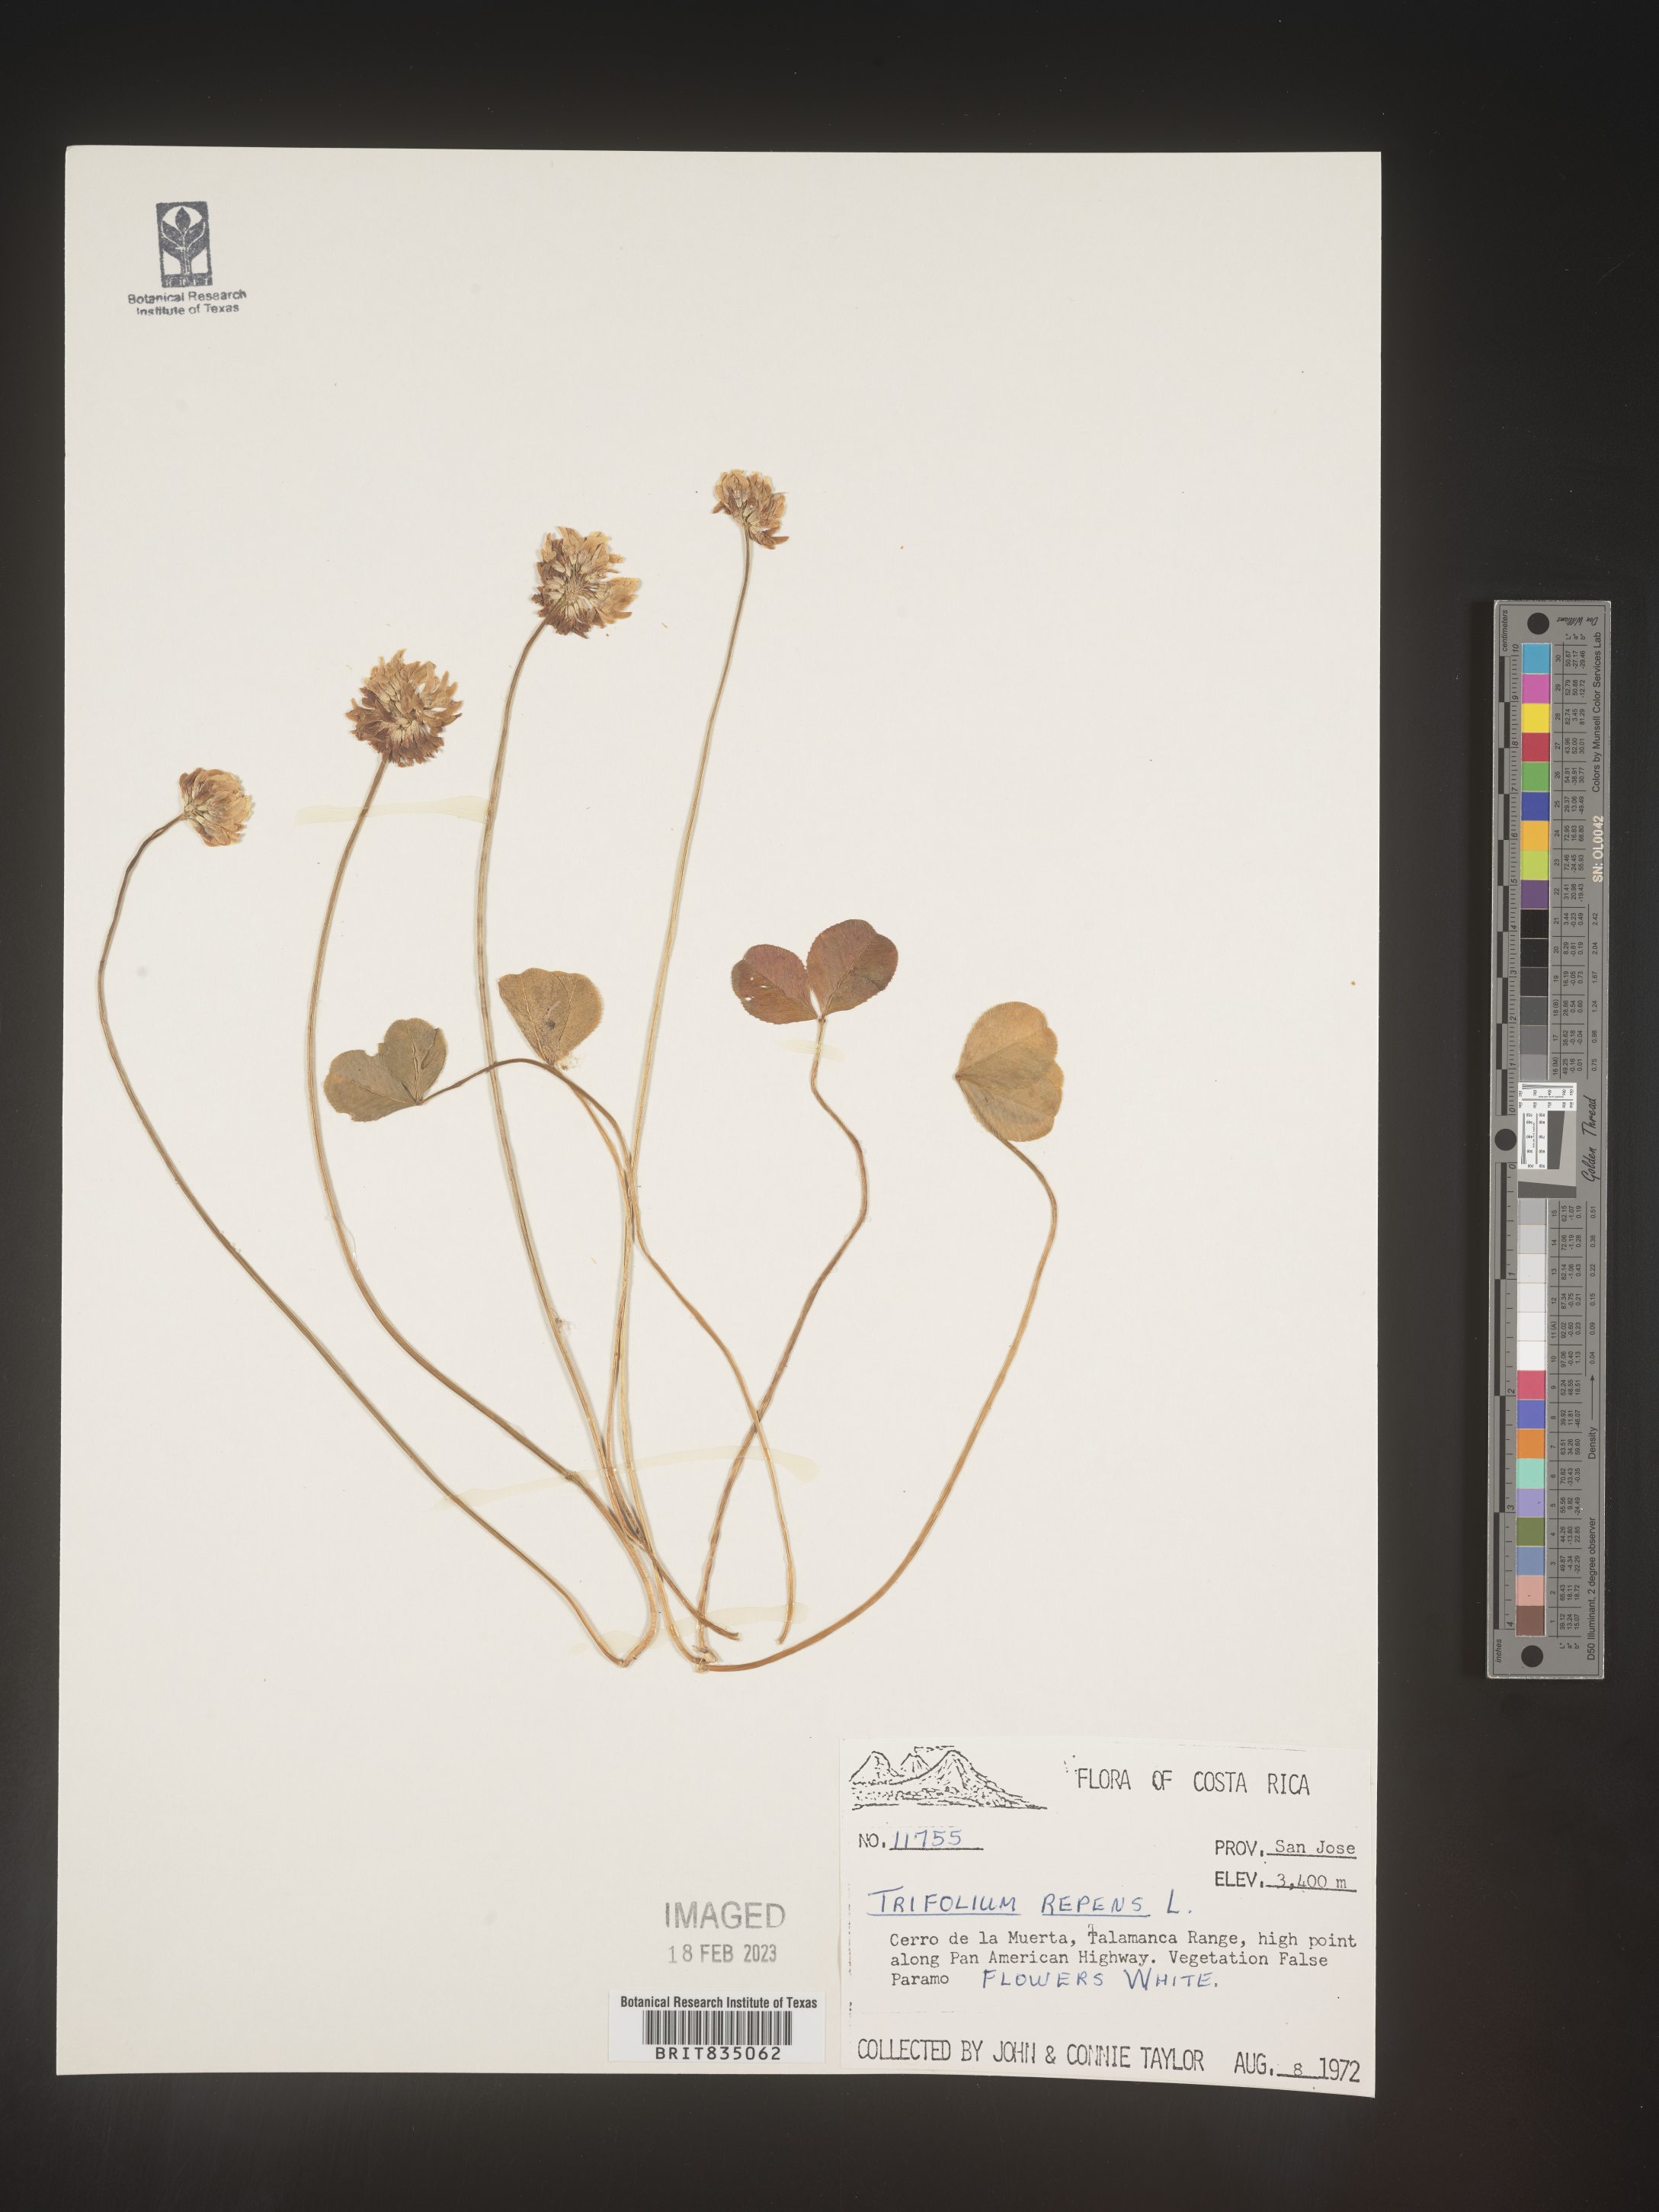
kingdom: Plantae
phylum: Tracheophyta
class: Magnoliopsida
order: Fabales
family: Fabaceae
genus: Trifolium
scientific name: Trifolium
